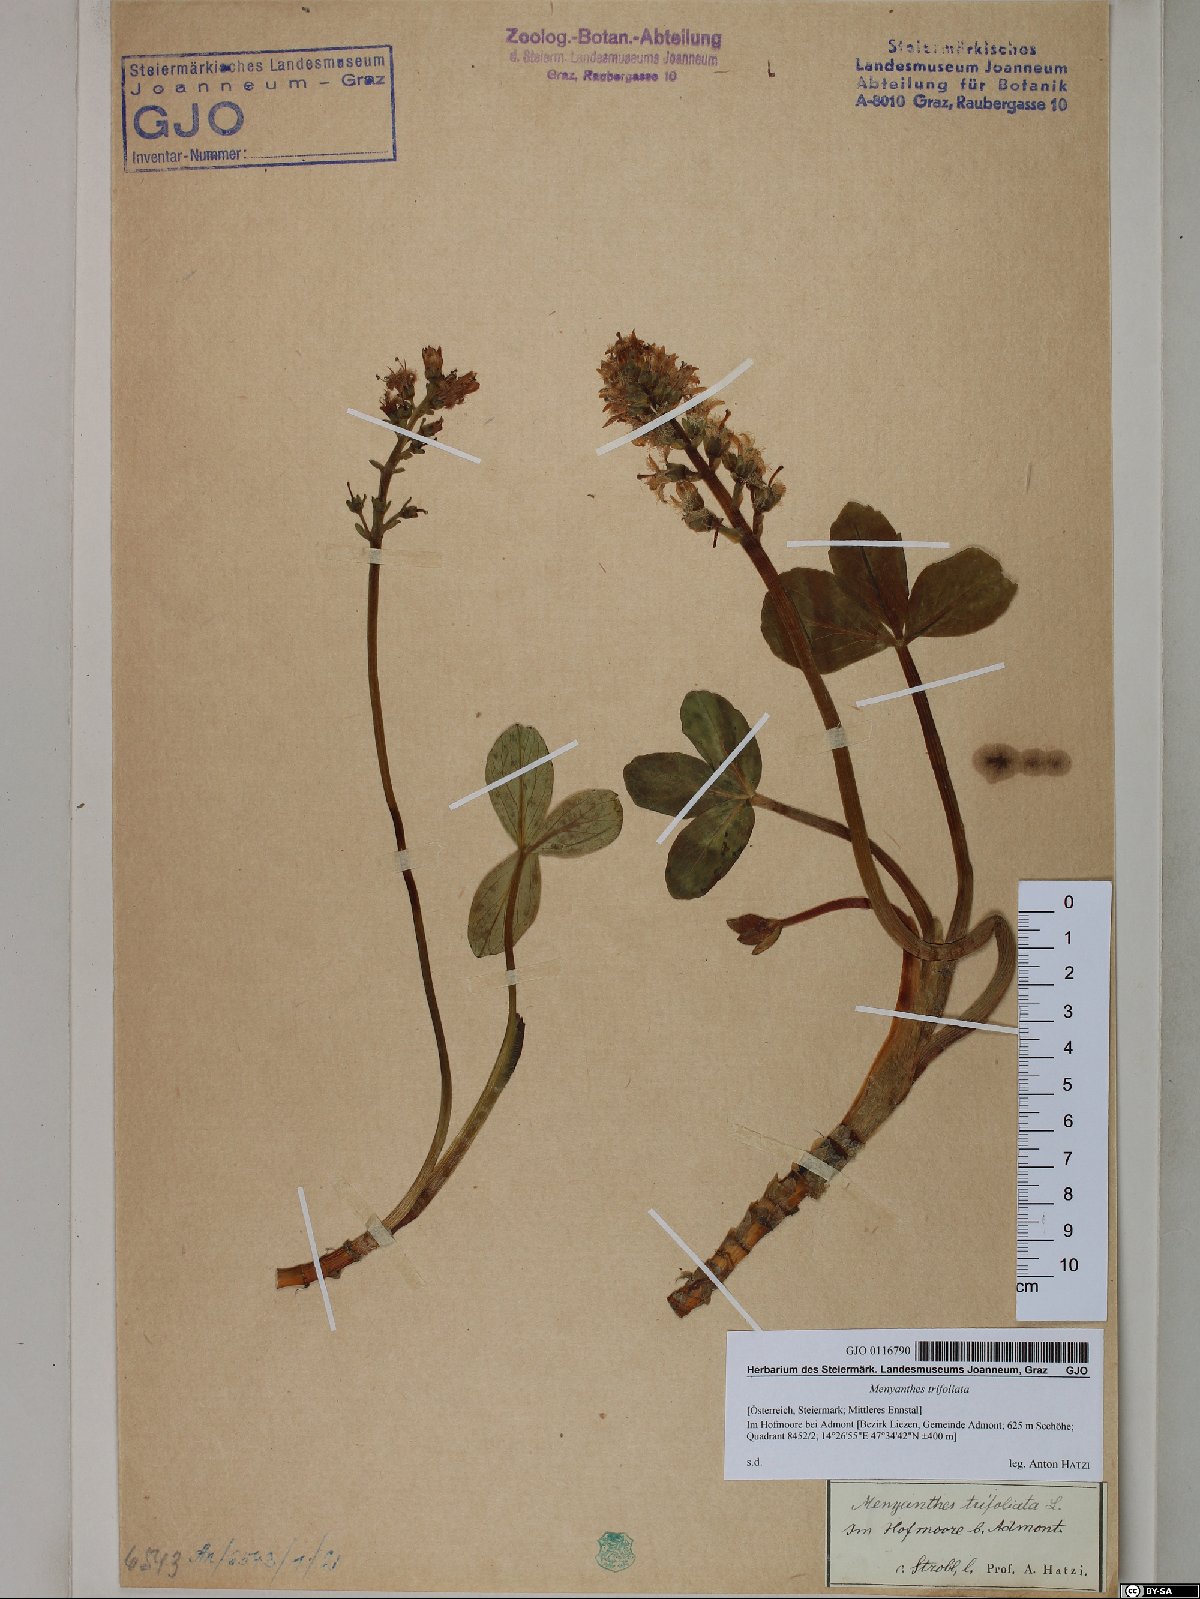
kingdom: Plantae
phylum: Tracheophyta
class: Magnoliopsida
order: Asterales
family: Menyanthaceae
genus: Menyanthes
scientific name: Menyanthes trifoliata
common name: Bogbean
